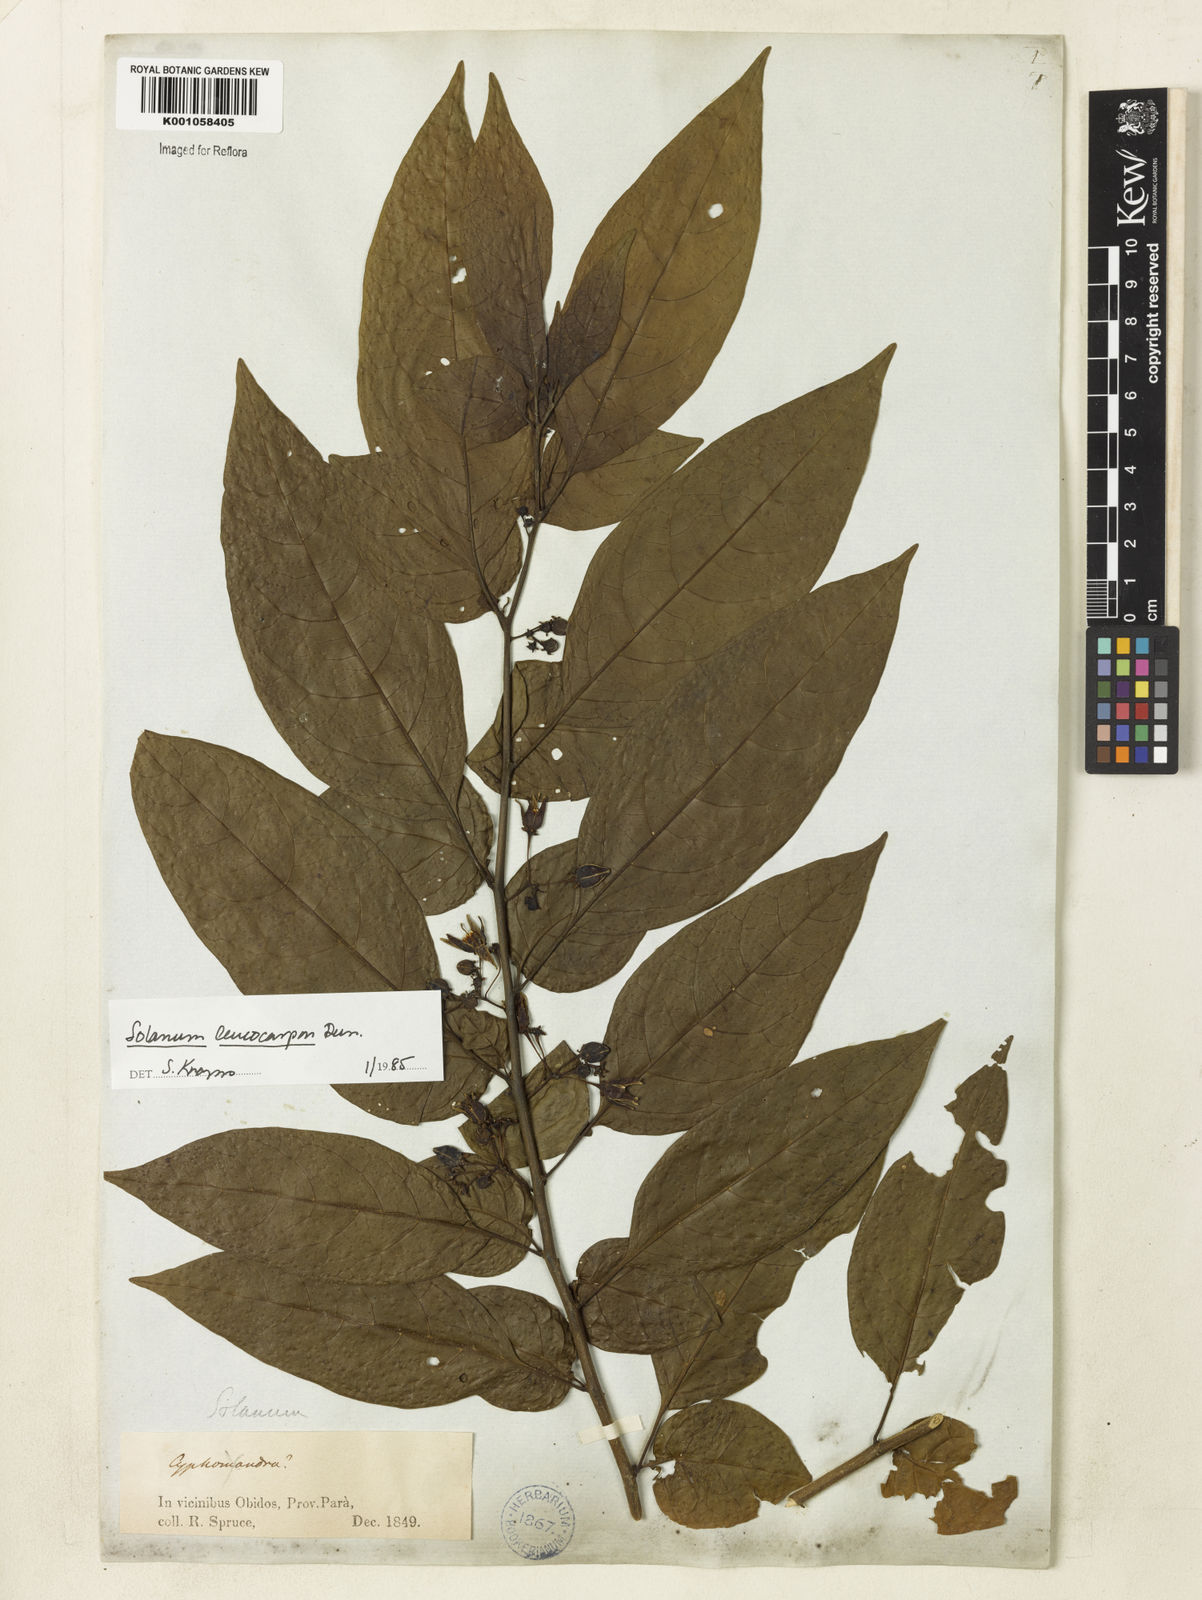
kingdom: Plantae
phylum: Tracheophyta
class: Magnoliopsida
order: Solanales
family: Solanaceae
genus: Solanum
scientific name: Solanum leucocarpon
